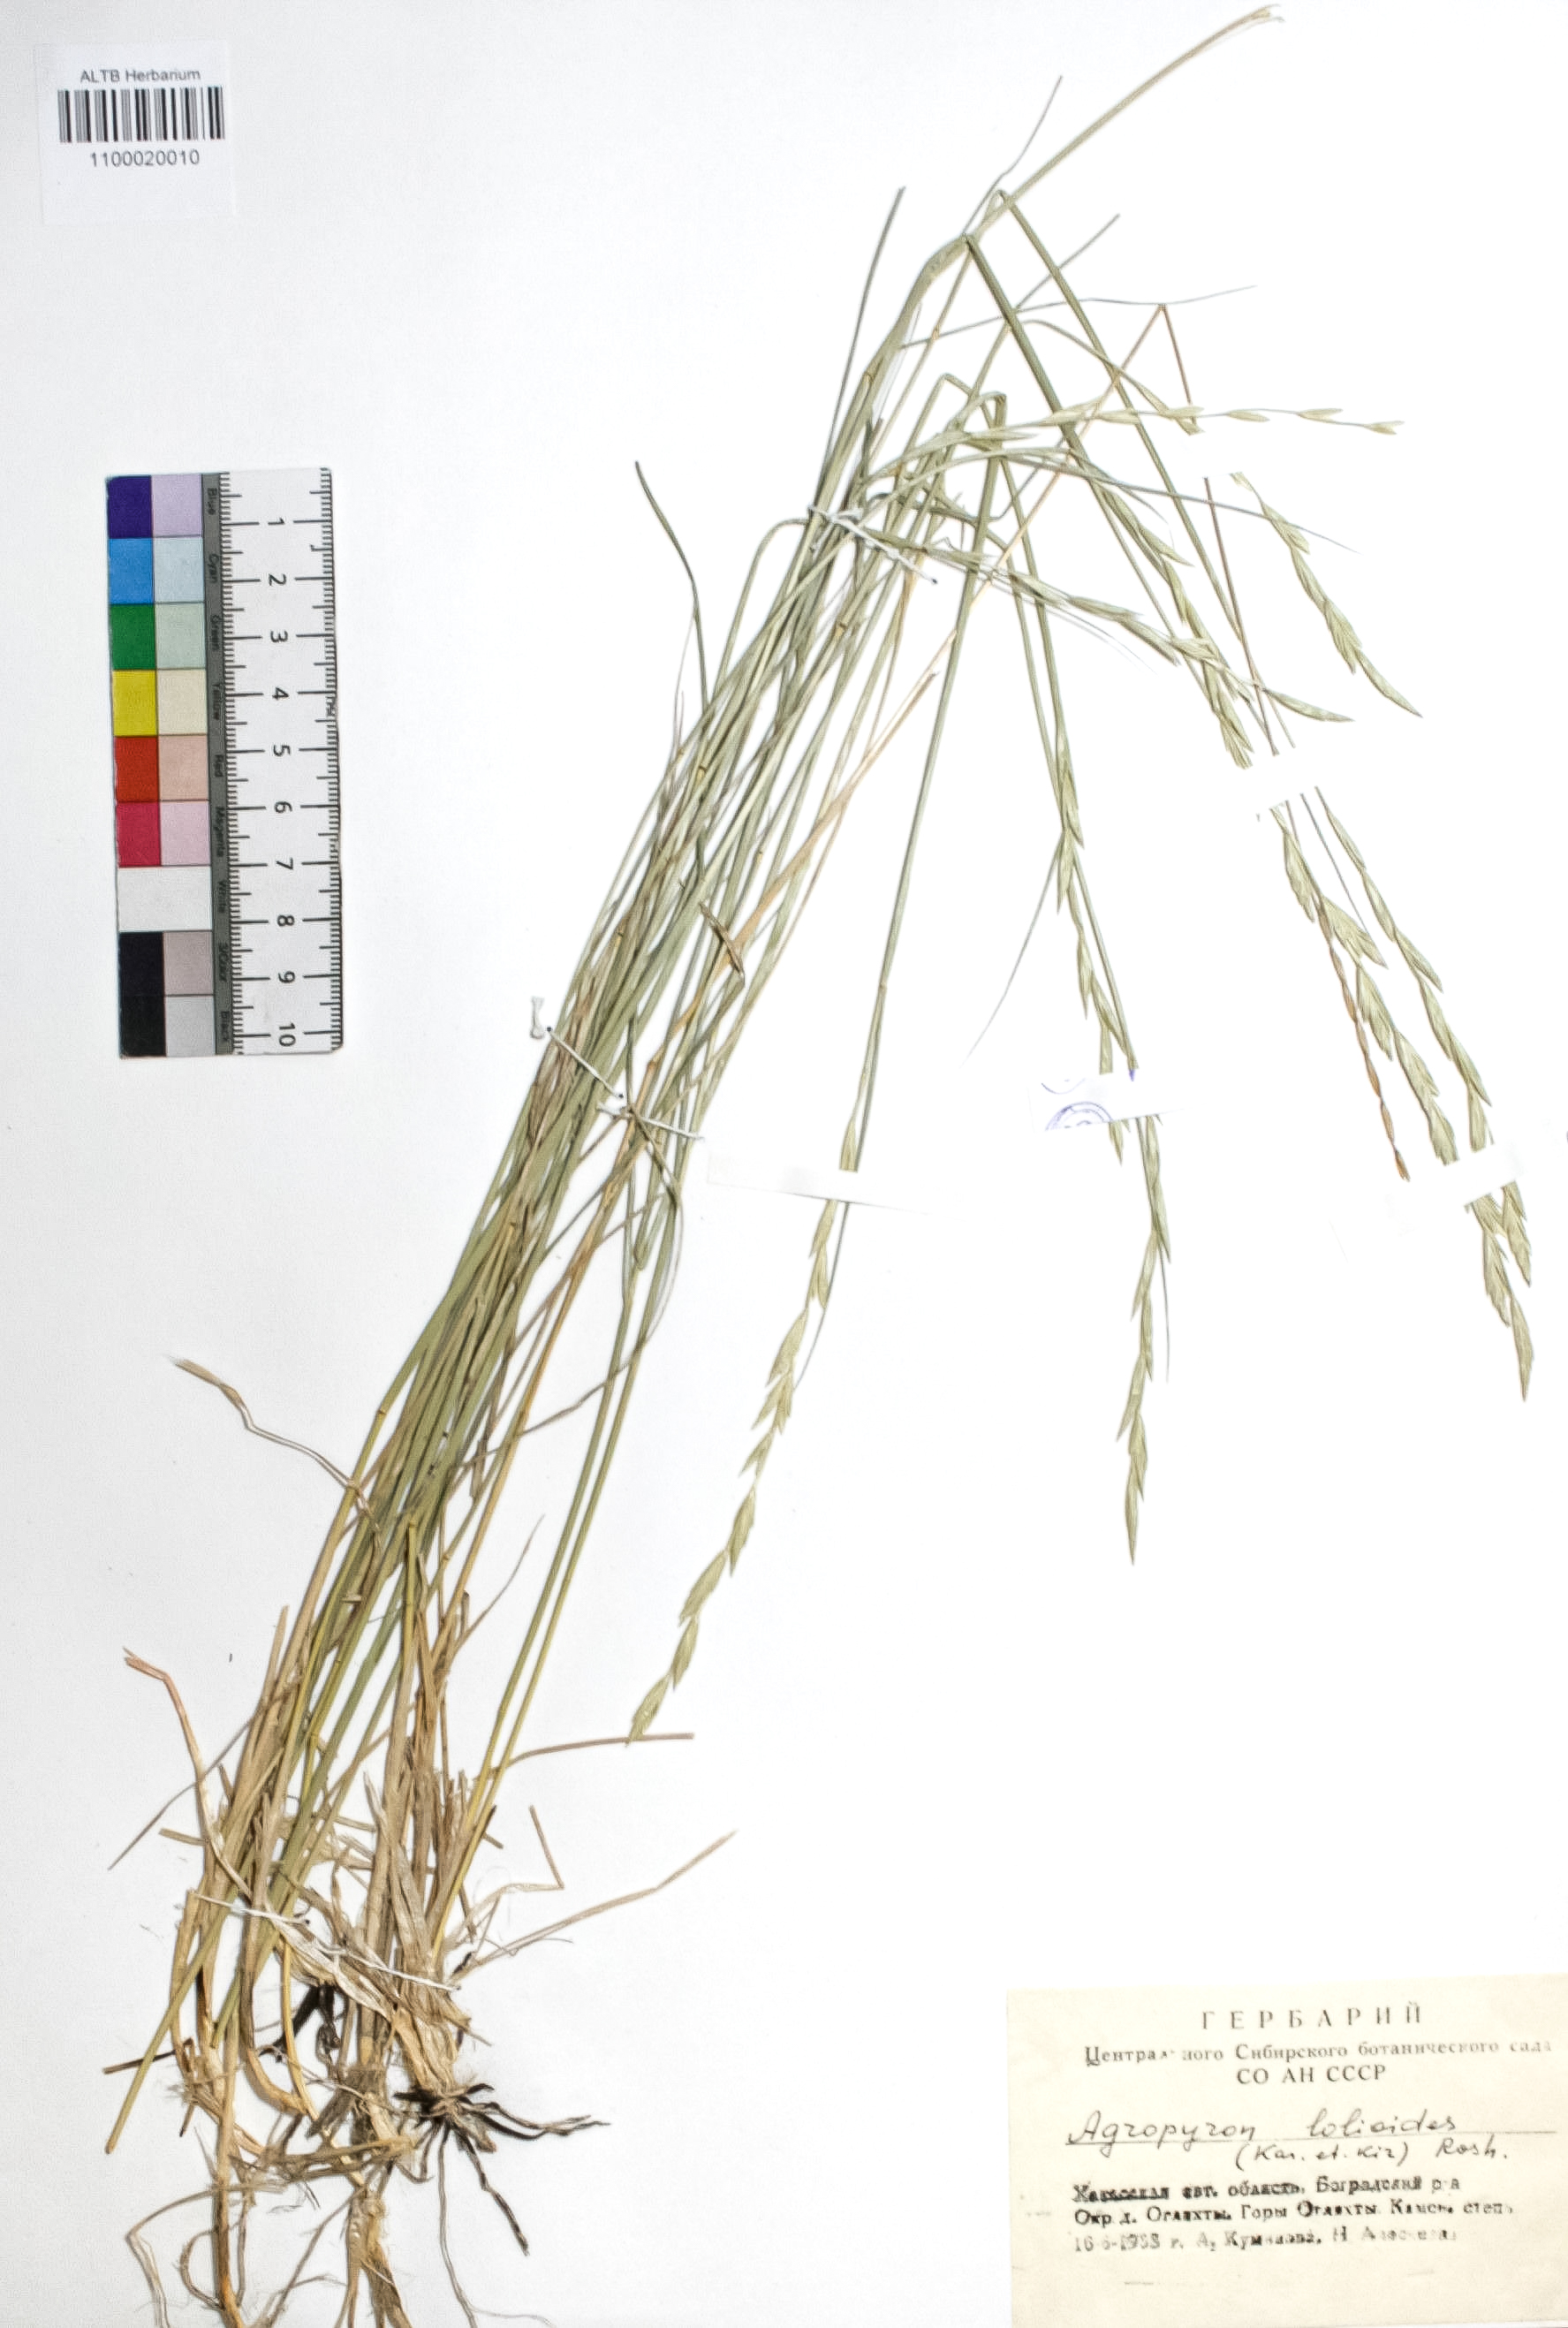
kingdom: Plantae
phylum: Tracheophyta
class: Liliopsida
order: Poales
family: Poaceae
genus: Agropyron
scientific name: Agropyron lolioides
